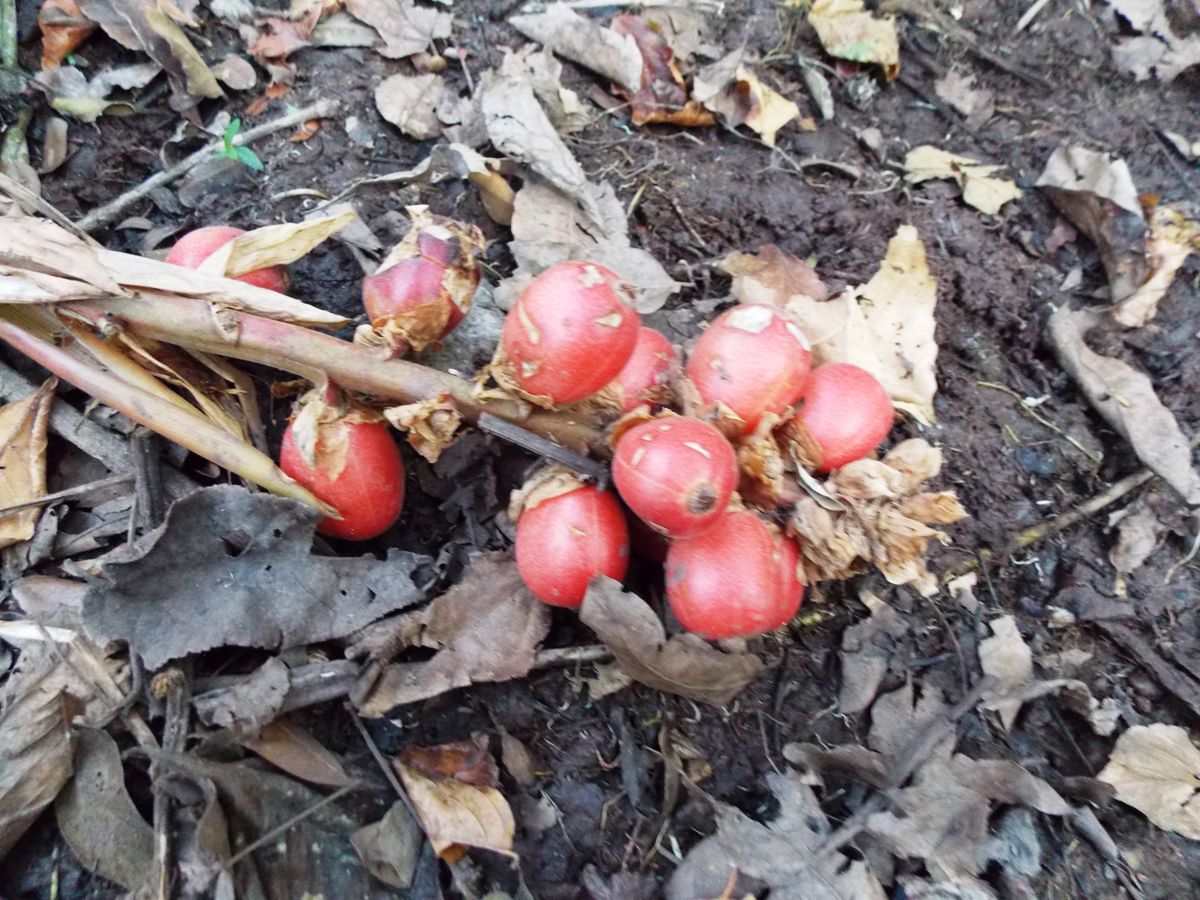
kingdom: Plantae
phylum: Tracheophyta
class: Liliopsida
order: Zingiberales
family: Zingiberaceae
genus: Renealmia
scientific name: Renealmia alpinia
